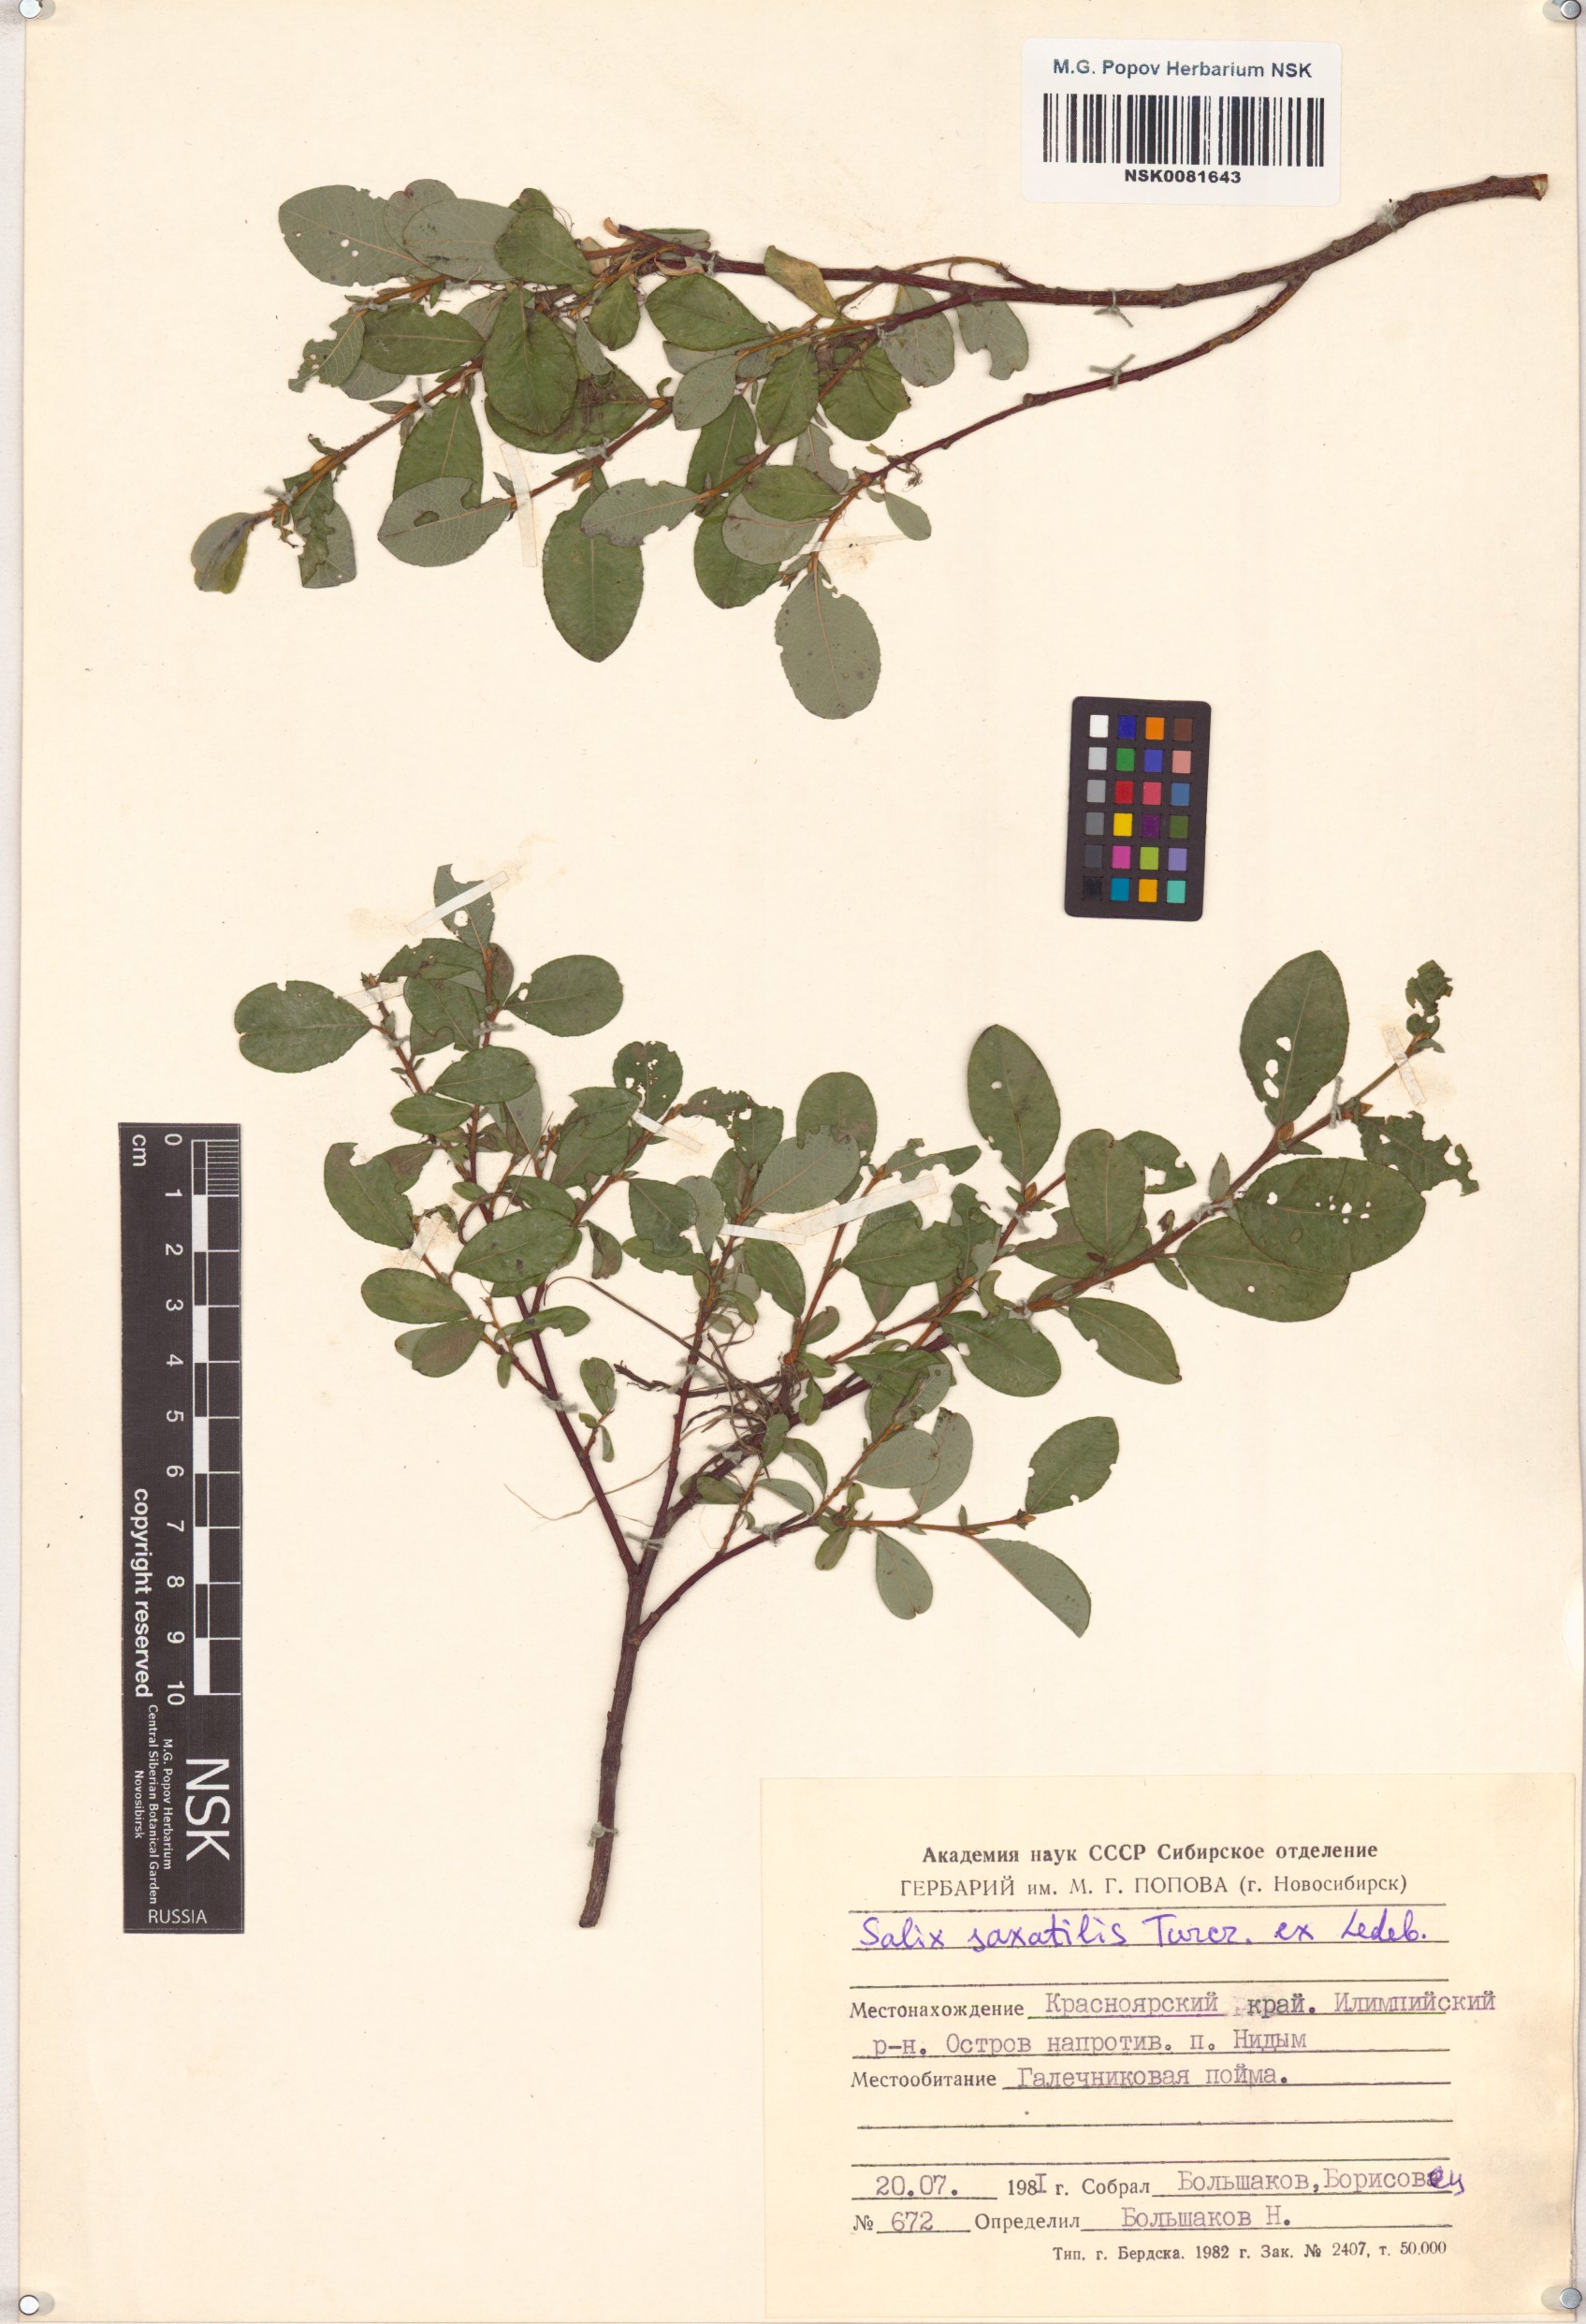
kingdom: Plantae
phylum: Tracheophyta
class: Magnoliopsida
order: Malpighiales
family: Salicaceae
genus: Salix
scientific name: Salix saxatilis
